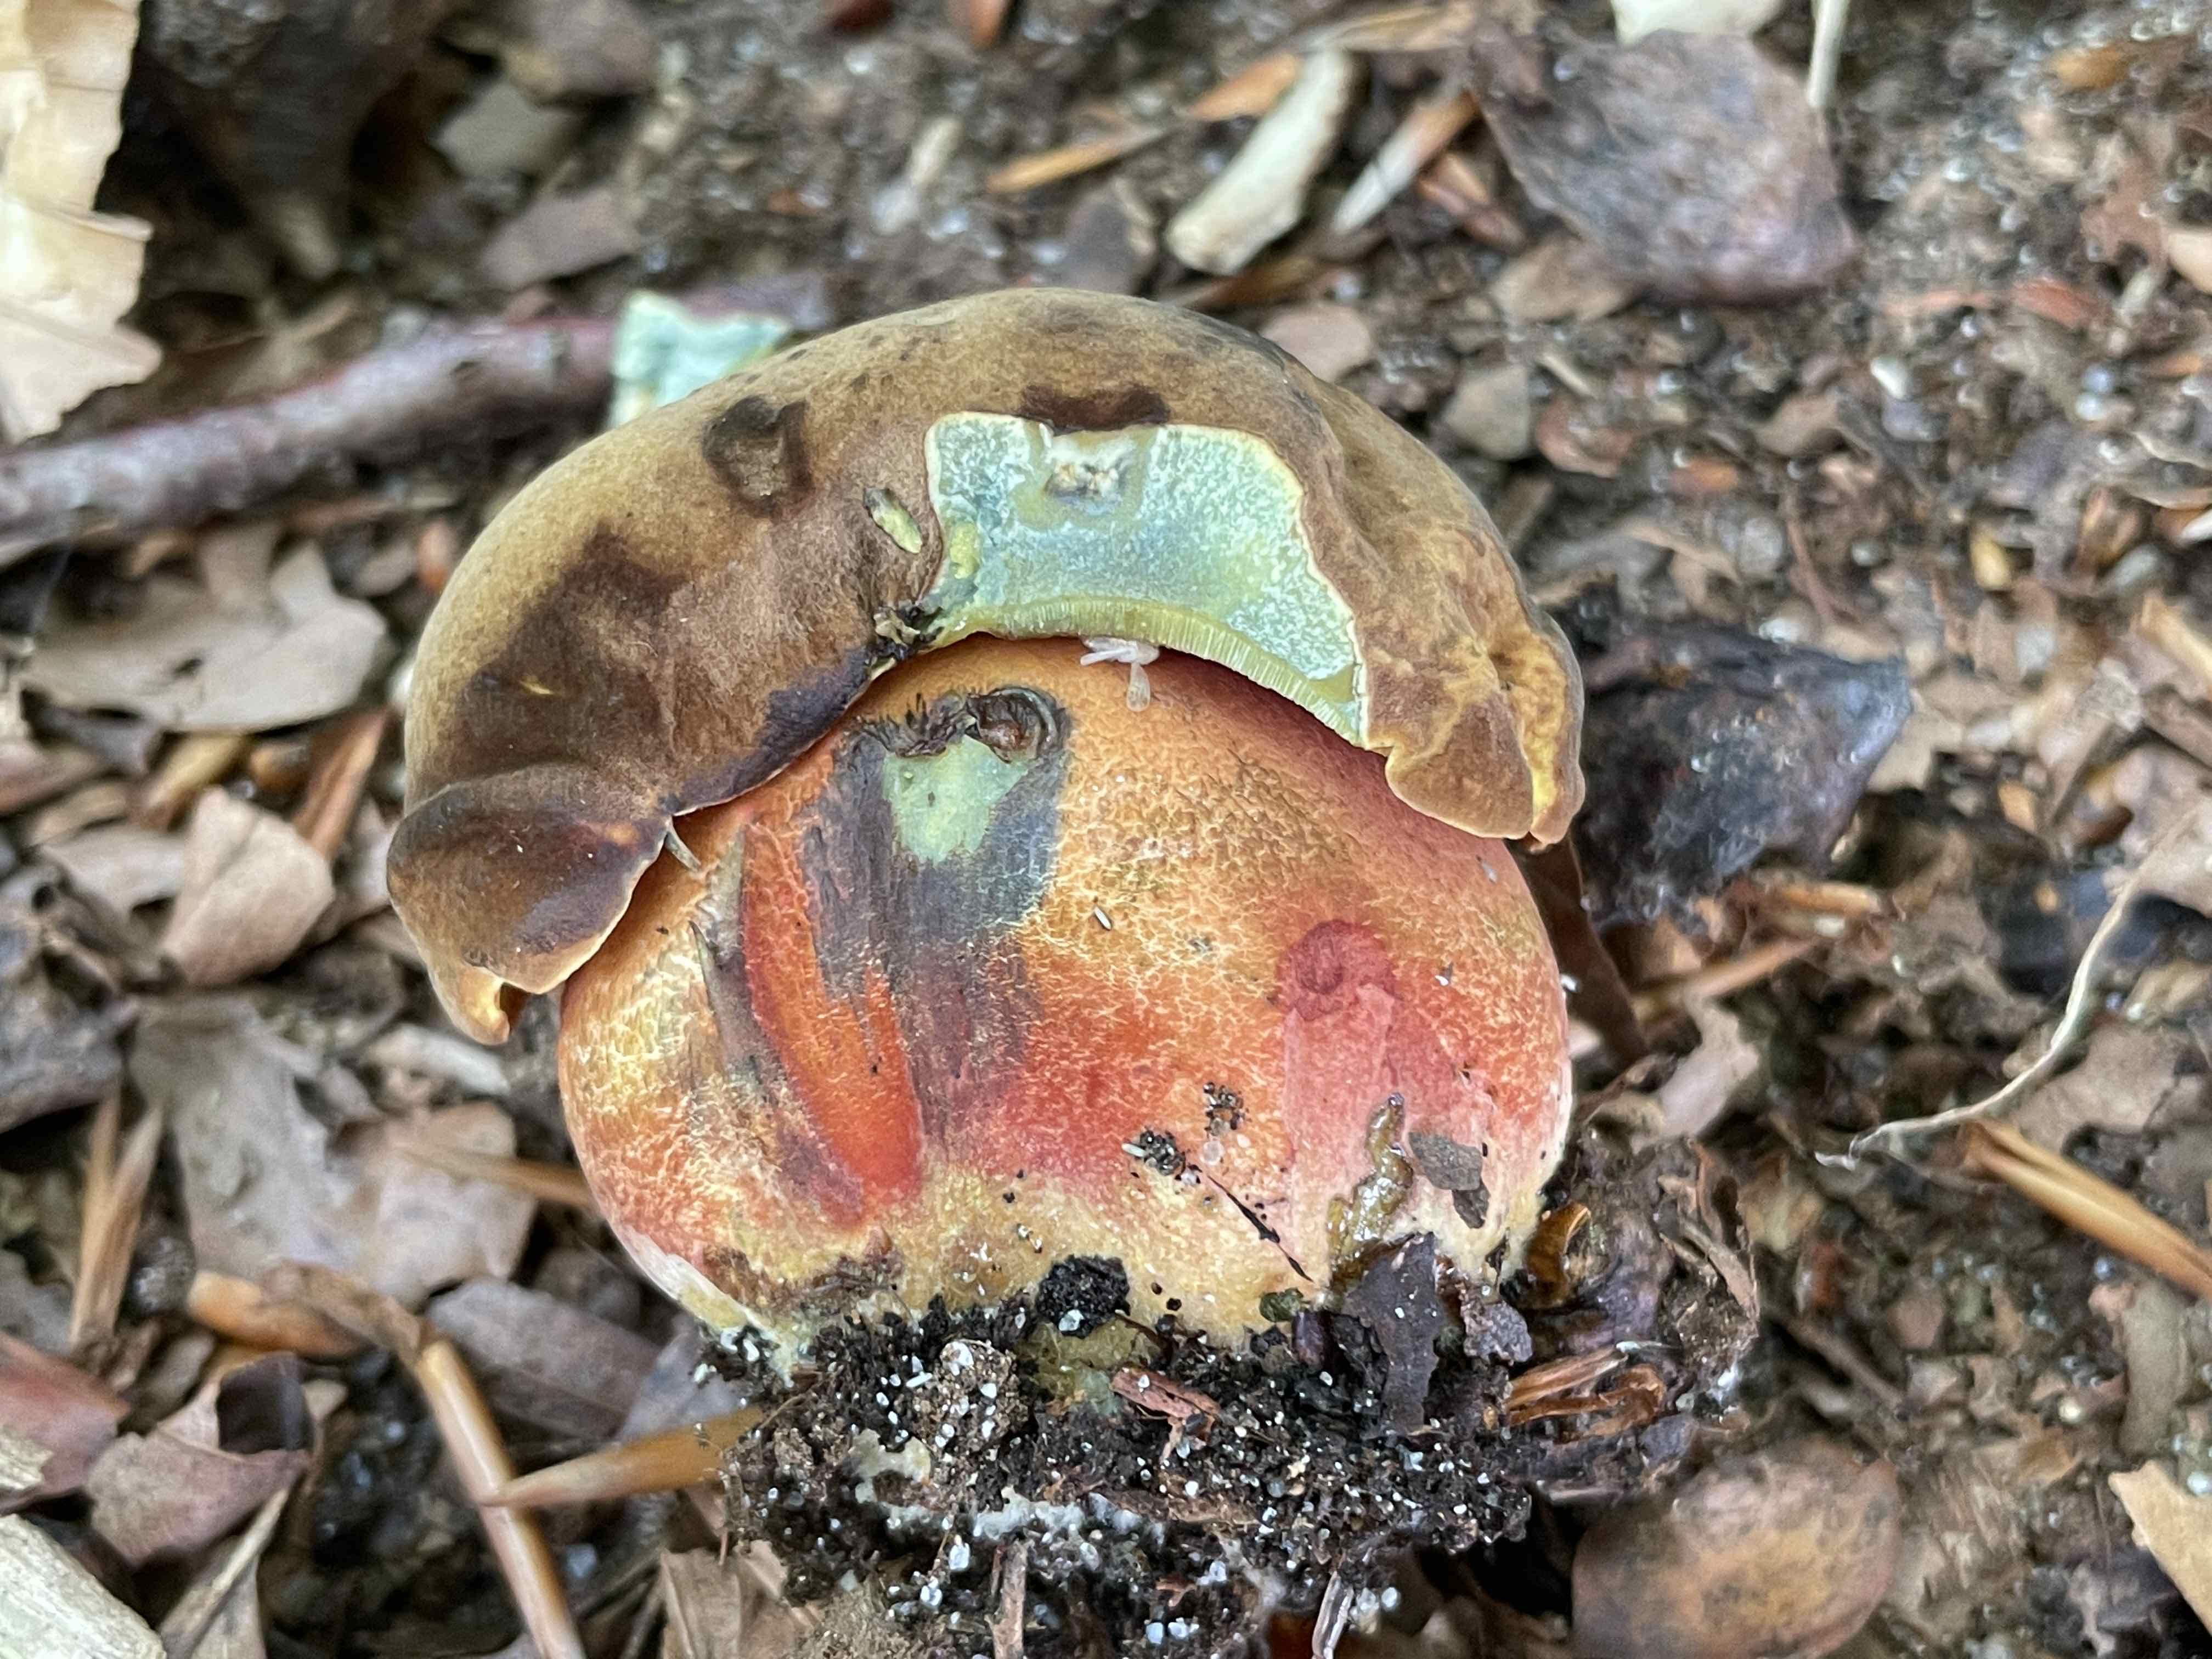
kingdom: Fungi
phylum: Basidiomycota
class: Agaricomycetes
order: Boletales
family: Boletaceae
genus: Neoboletus
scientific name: Neoboletus erythropus
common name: punktstokket indigorørhat
